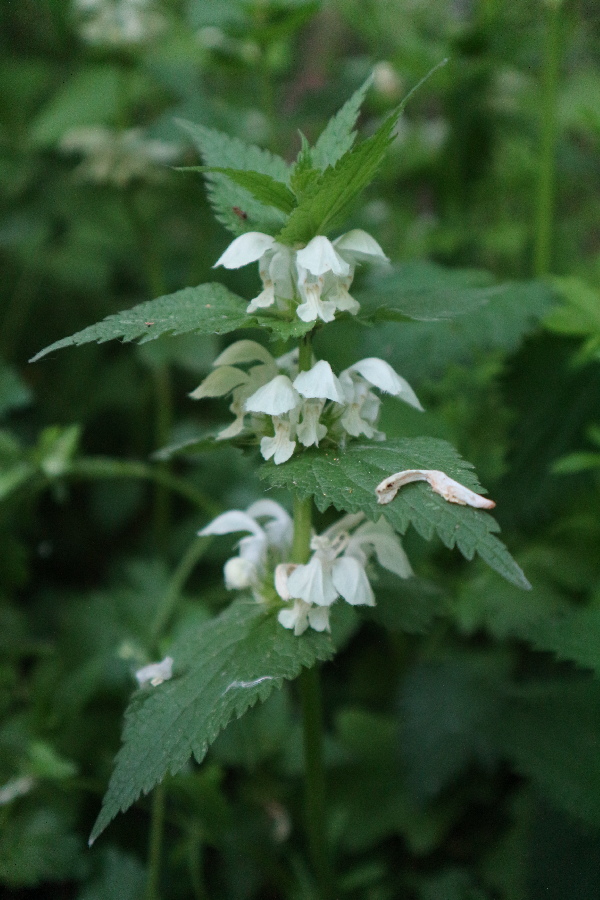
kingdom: Plantae
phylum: Tracheophyta
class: Magnoliopsida
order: Lamiales
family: Lamiaceae
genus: Lamium
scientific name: Lamium album
